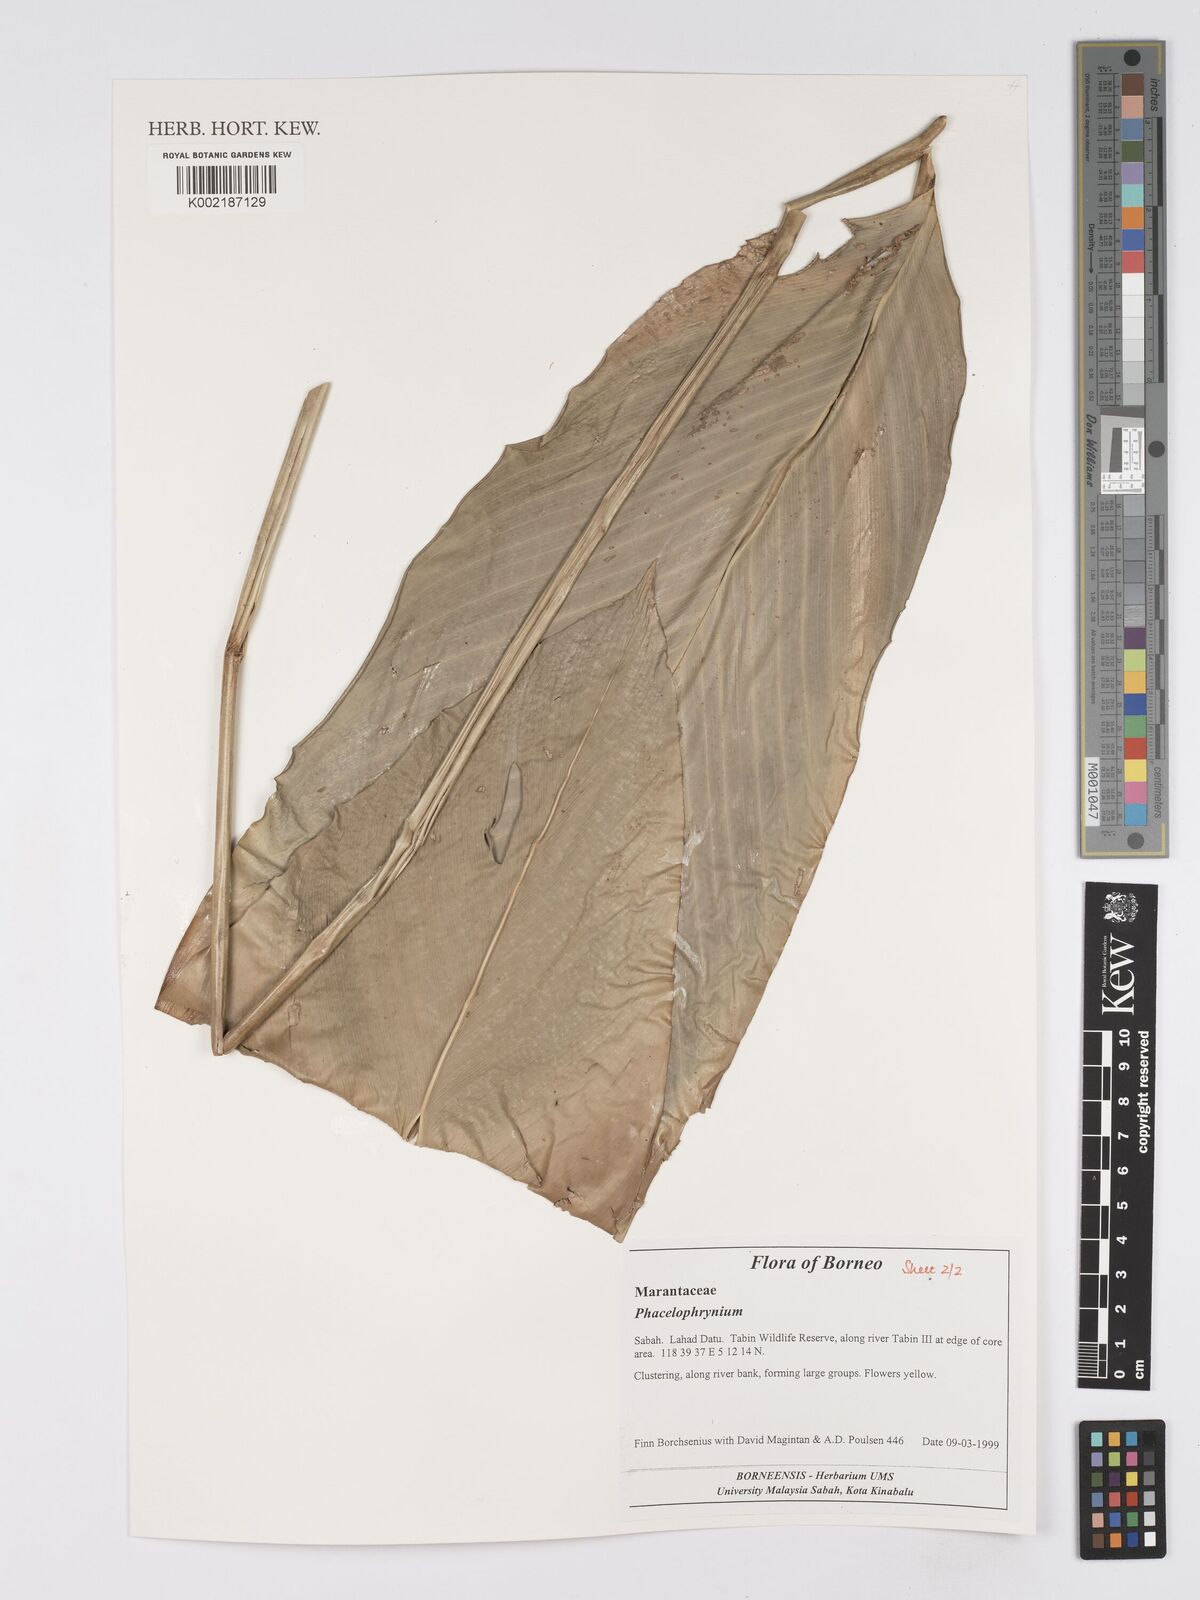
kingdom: Plantae
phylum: Tracheophyta
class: Liliopsida
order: Zingiberales
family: Marantaceae
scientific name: Marantaceae
